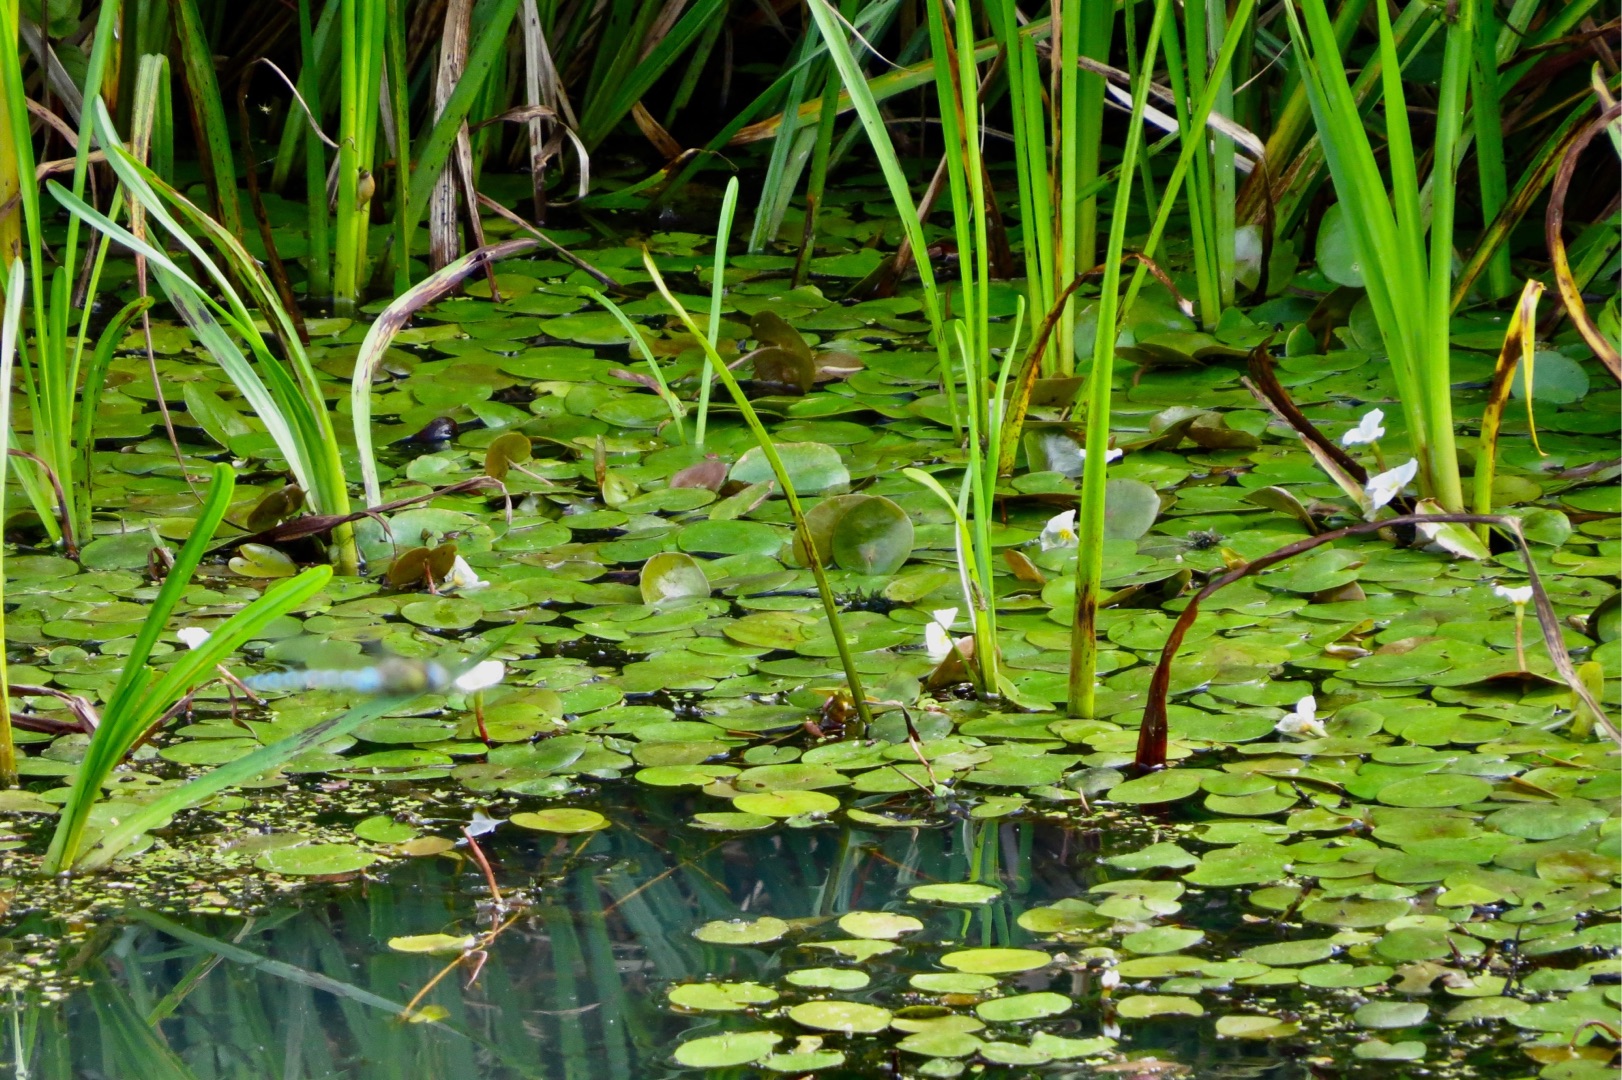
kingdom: Plantae
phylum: Tracheophyta
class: Liliopsida
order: Alismatales
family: Hydrocharitaceae
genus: Hydrocharis
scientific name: Hydrocharis morsus-ranae
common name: Frøbid
